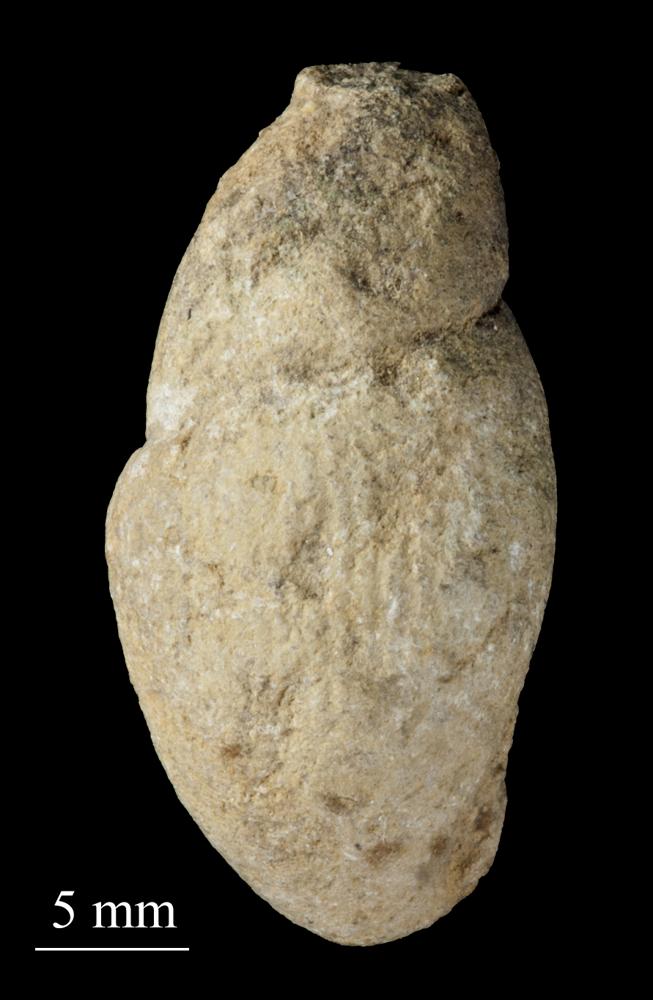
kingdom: Animalia
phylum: Mollusca
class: Gastropoda
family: Subulitidae
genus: Subulites
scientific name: Subulites priscus
